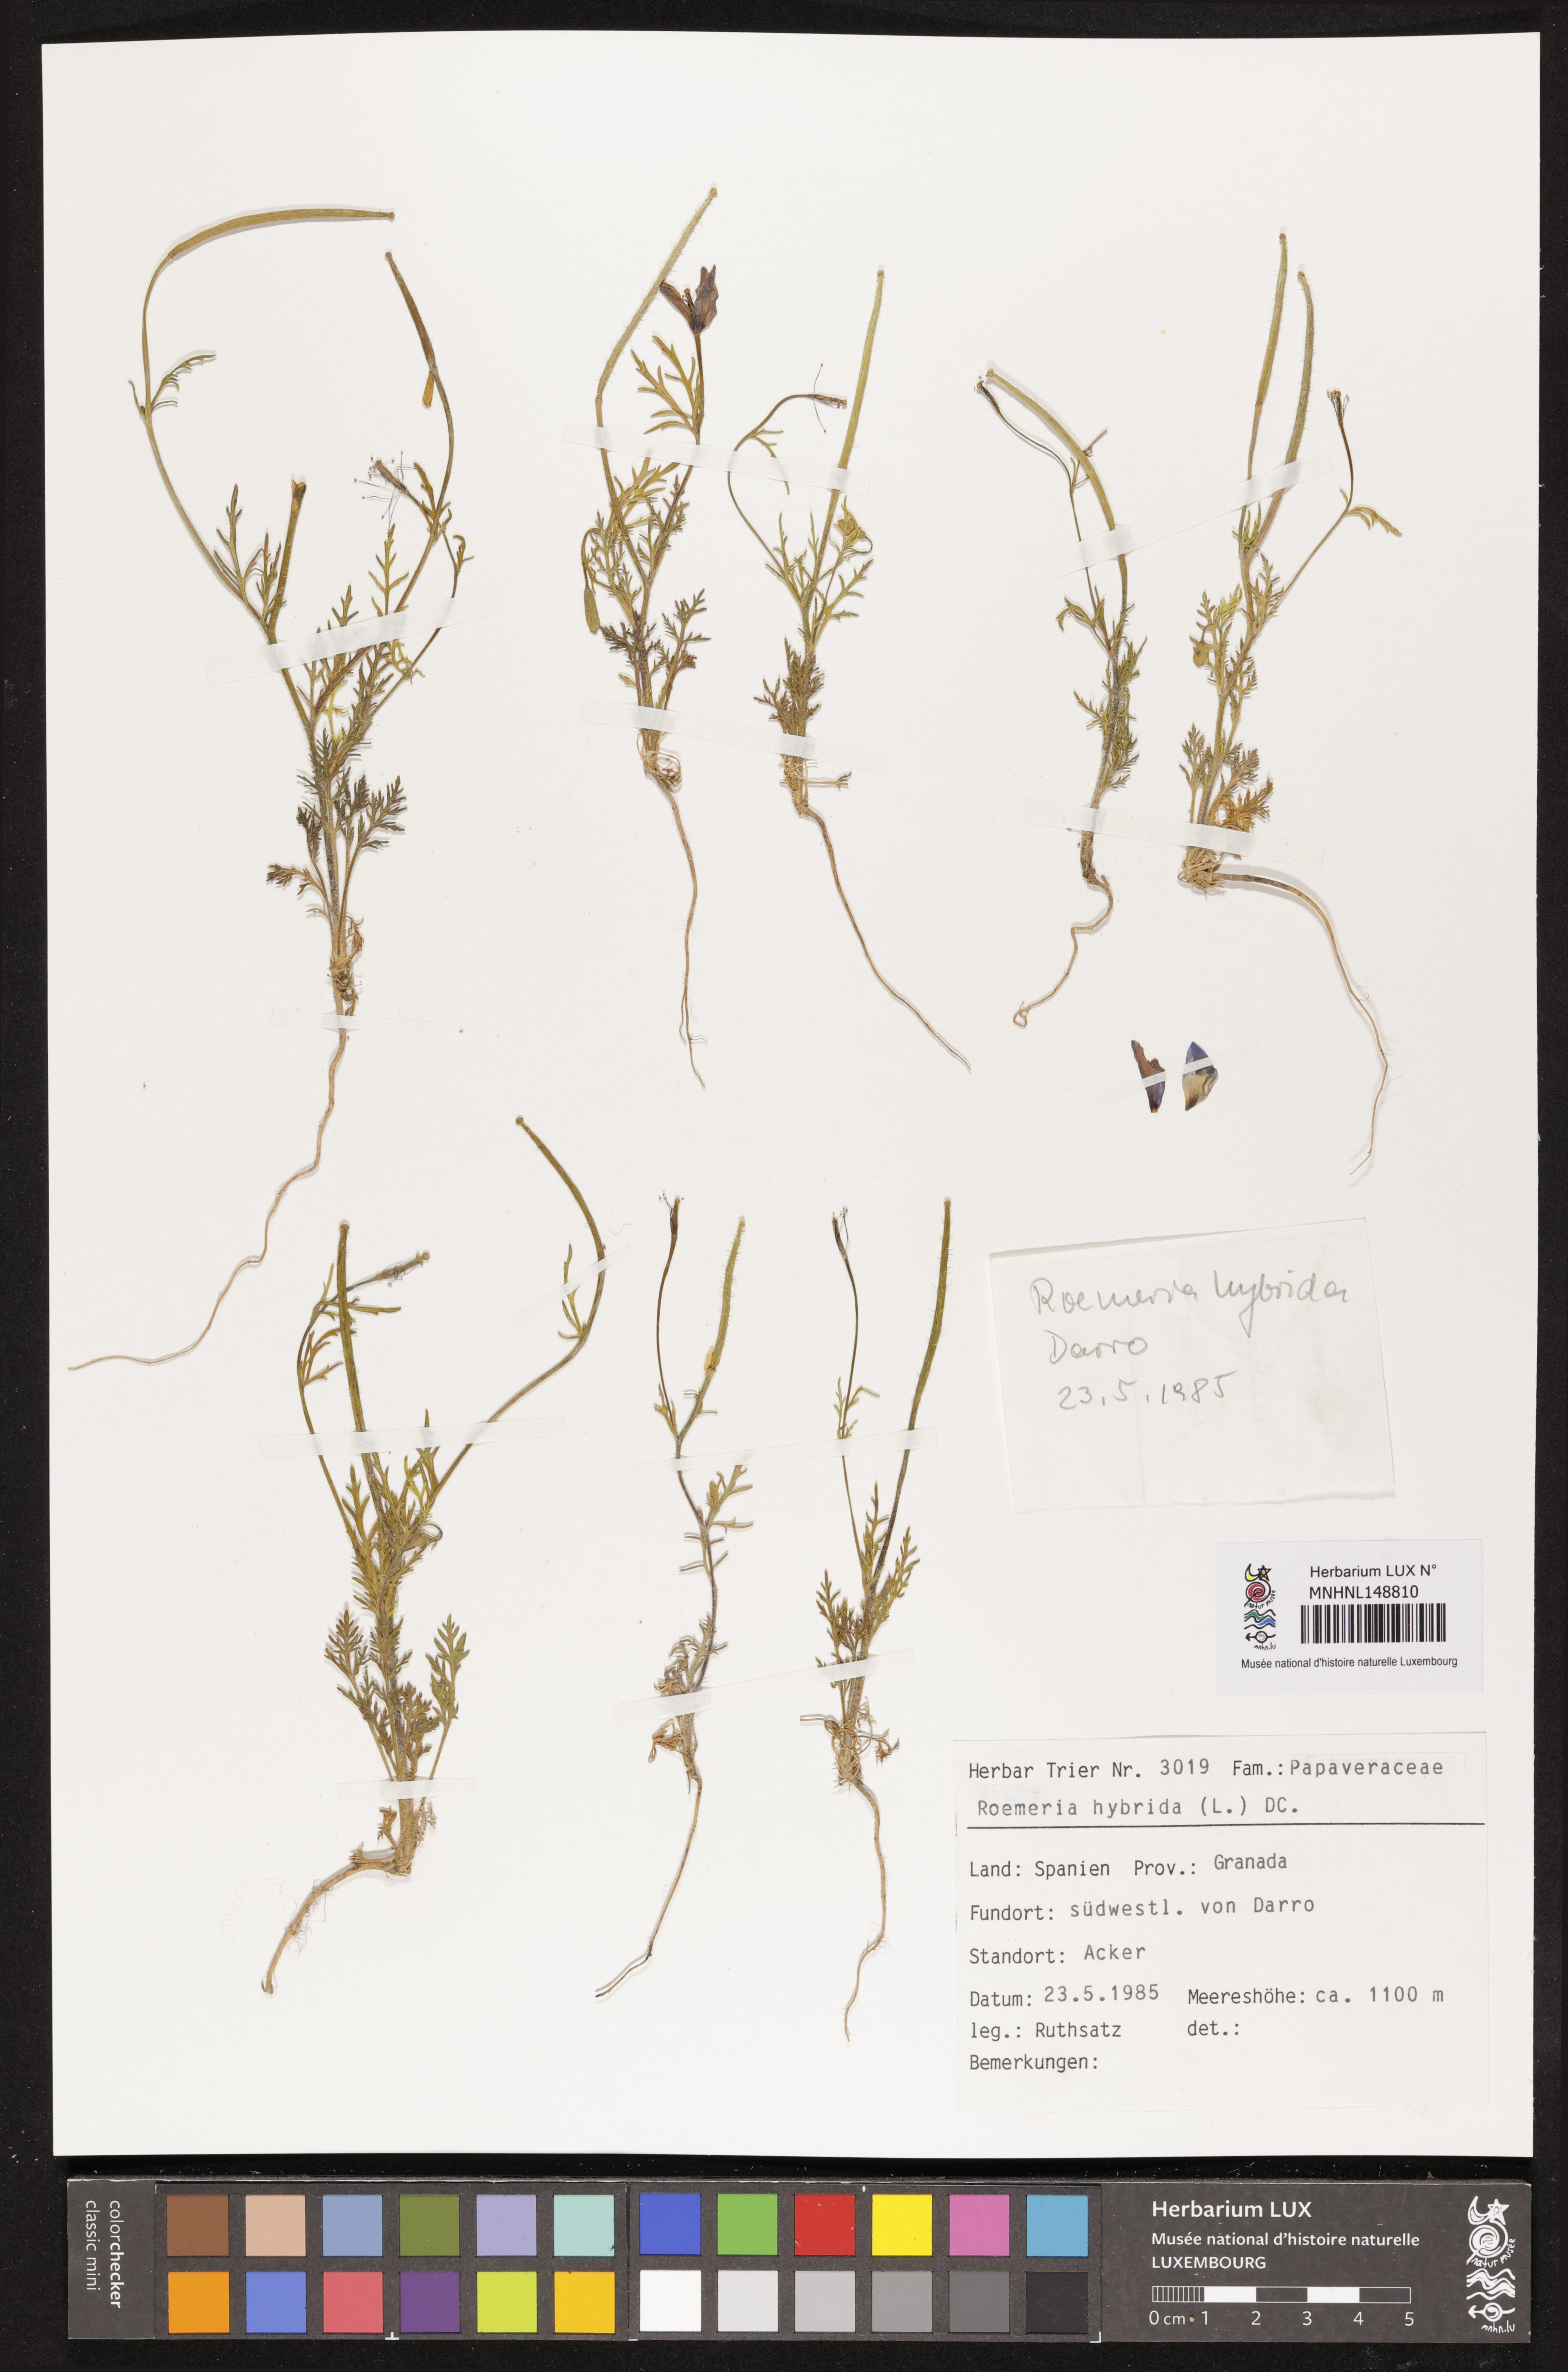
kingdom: Plantae
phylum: Tracheophyta
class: Magnoliopsida
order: Ranunculales
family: Papaveraceae
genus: Roemeria
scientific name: Roemeria hybrida
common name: Violet horned-poppy
